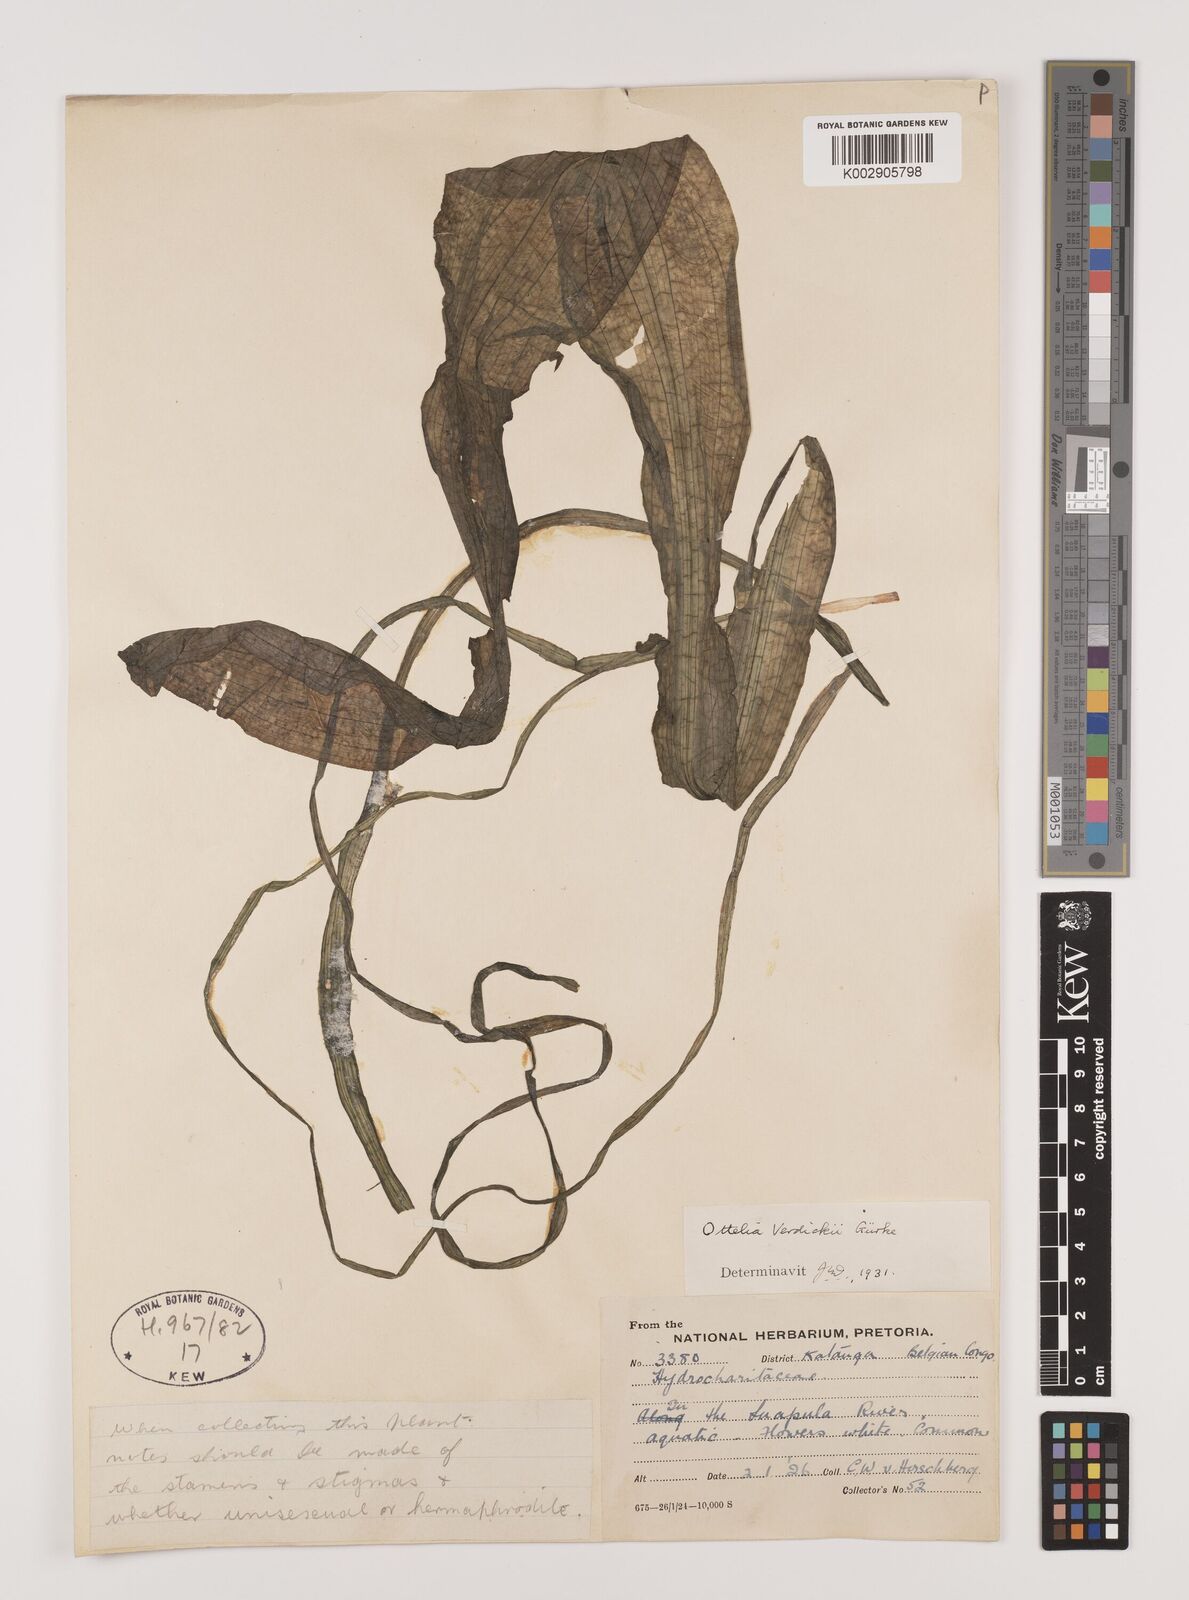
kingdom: Plantae
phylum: Tracheophyta
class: Liliopsida
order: Alismatales
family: Hydrocharitaceae
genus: Ottelia
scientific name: Ottelia verdickii
